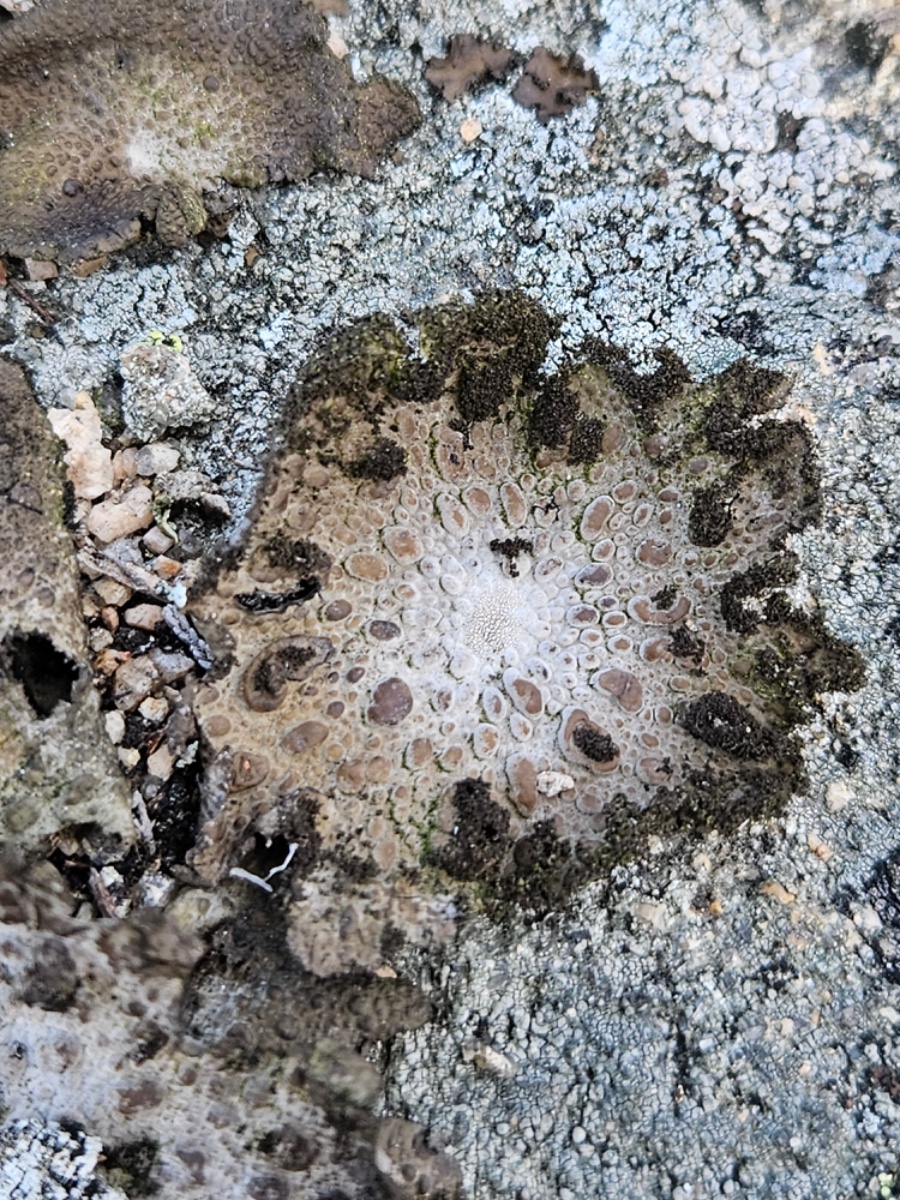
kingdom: Fungi
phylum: Ascomycota
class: Lecanoromycetes
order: Umbilicariales
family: Umbilicariaceae
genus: Lasallia
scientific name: Lasallia pustulata
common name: buklet navlelav
